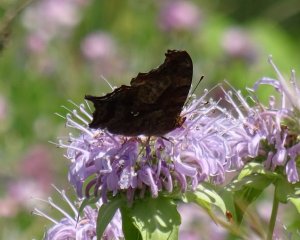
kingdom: Animalia
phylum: Arthropoda
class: Insecta
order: Lepidoptera
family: Nymphalidae
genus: Polygonia
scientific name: Polygonia interrogationis
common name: Question Mark
